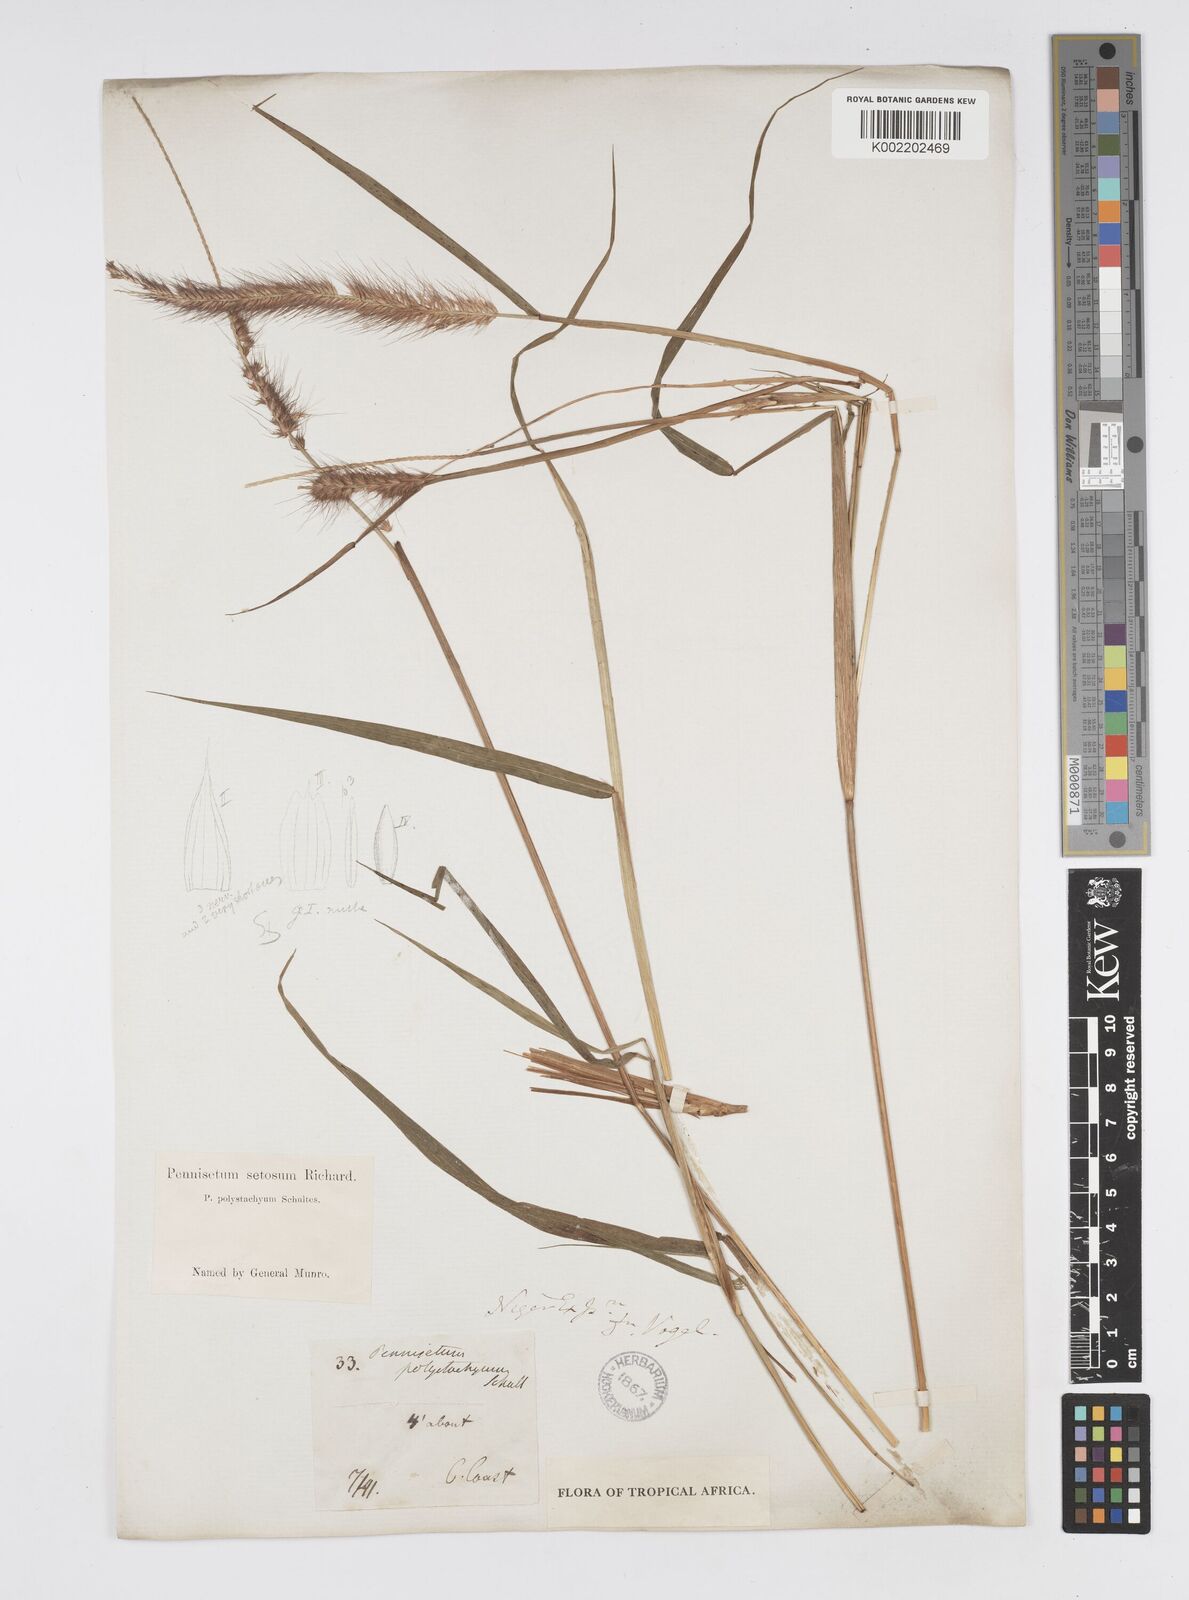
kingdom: Plantae
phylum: Tracheophyta
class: Liliopsida
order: Poales
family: Poaceae
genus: Setaria
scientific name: Setaria parviflora
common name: Knotroot bristle-grass
